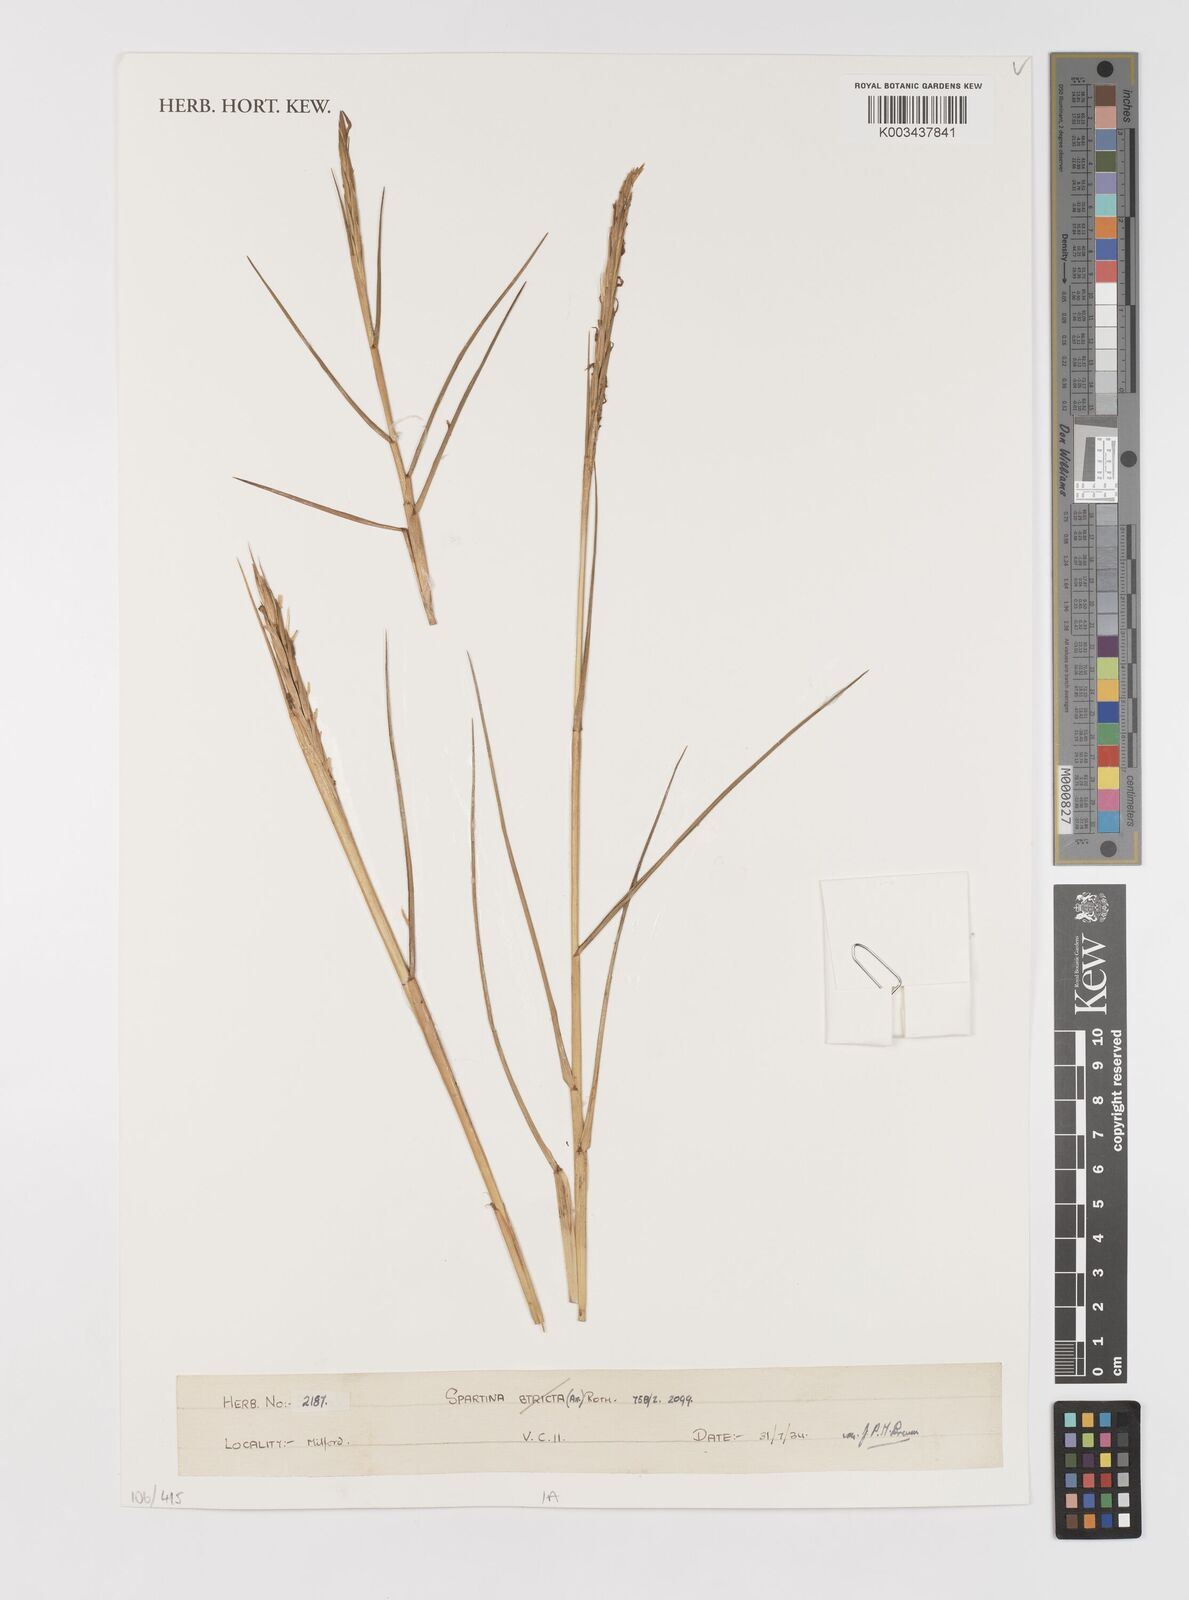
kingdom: Animalia
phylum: Mollusca
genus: Spartina
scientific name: Spartina
